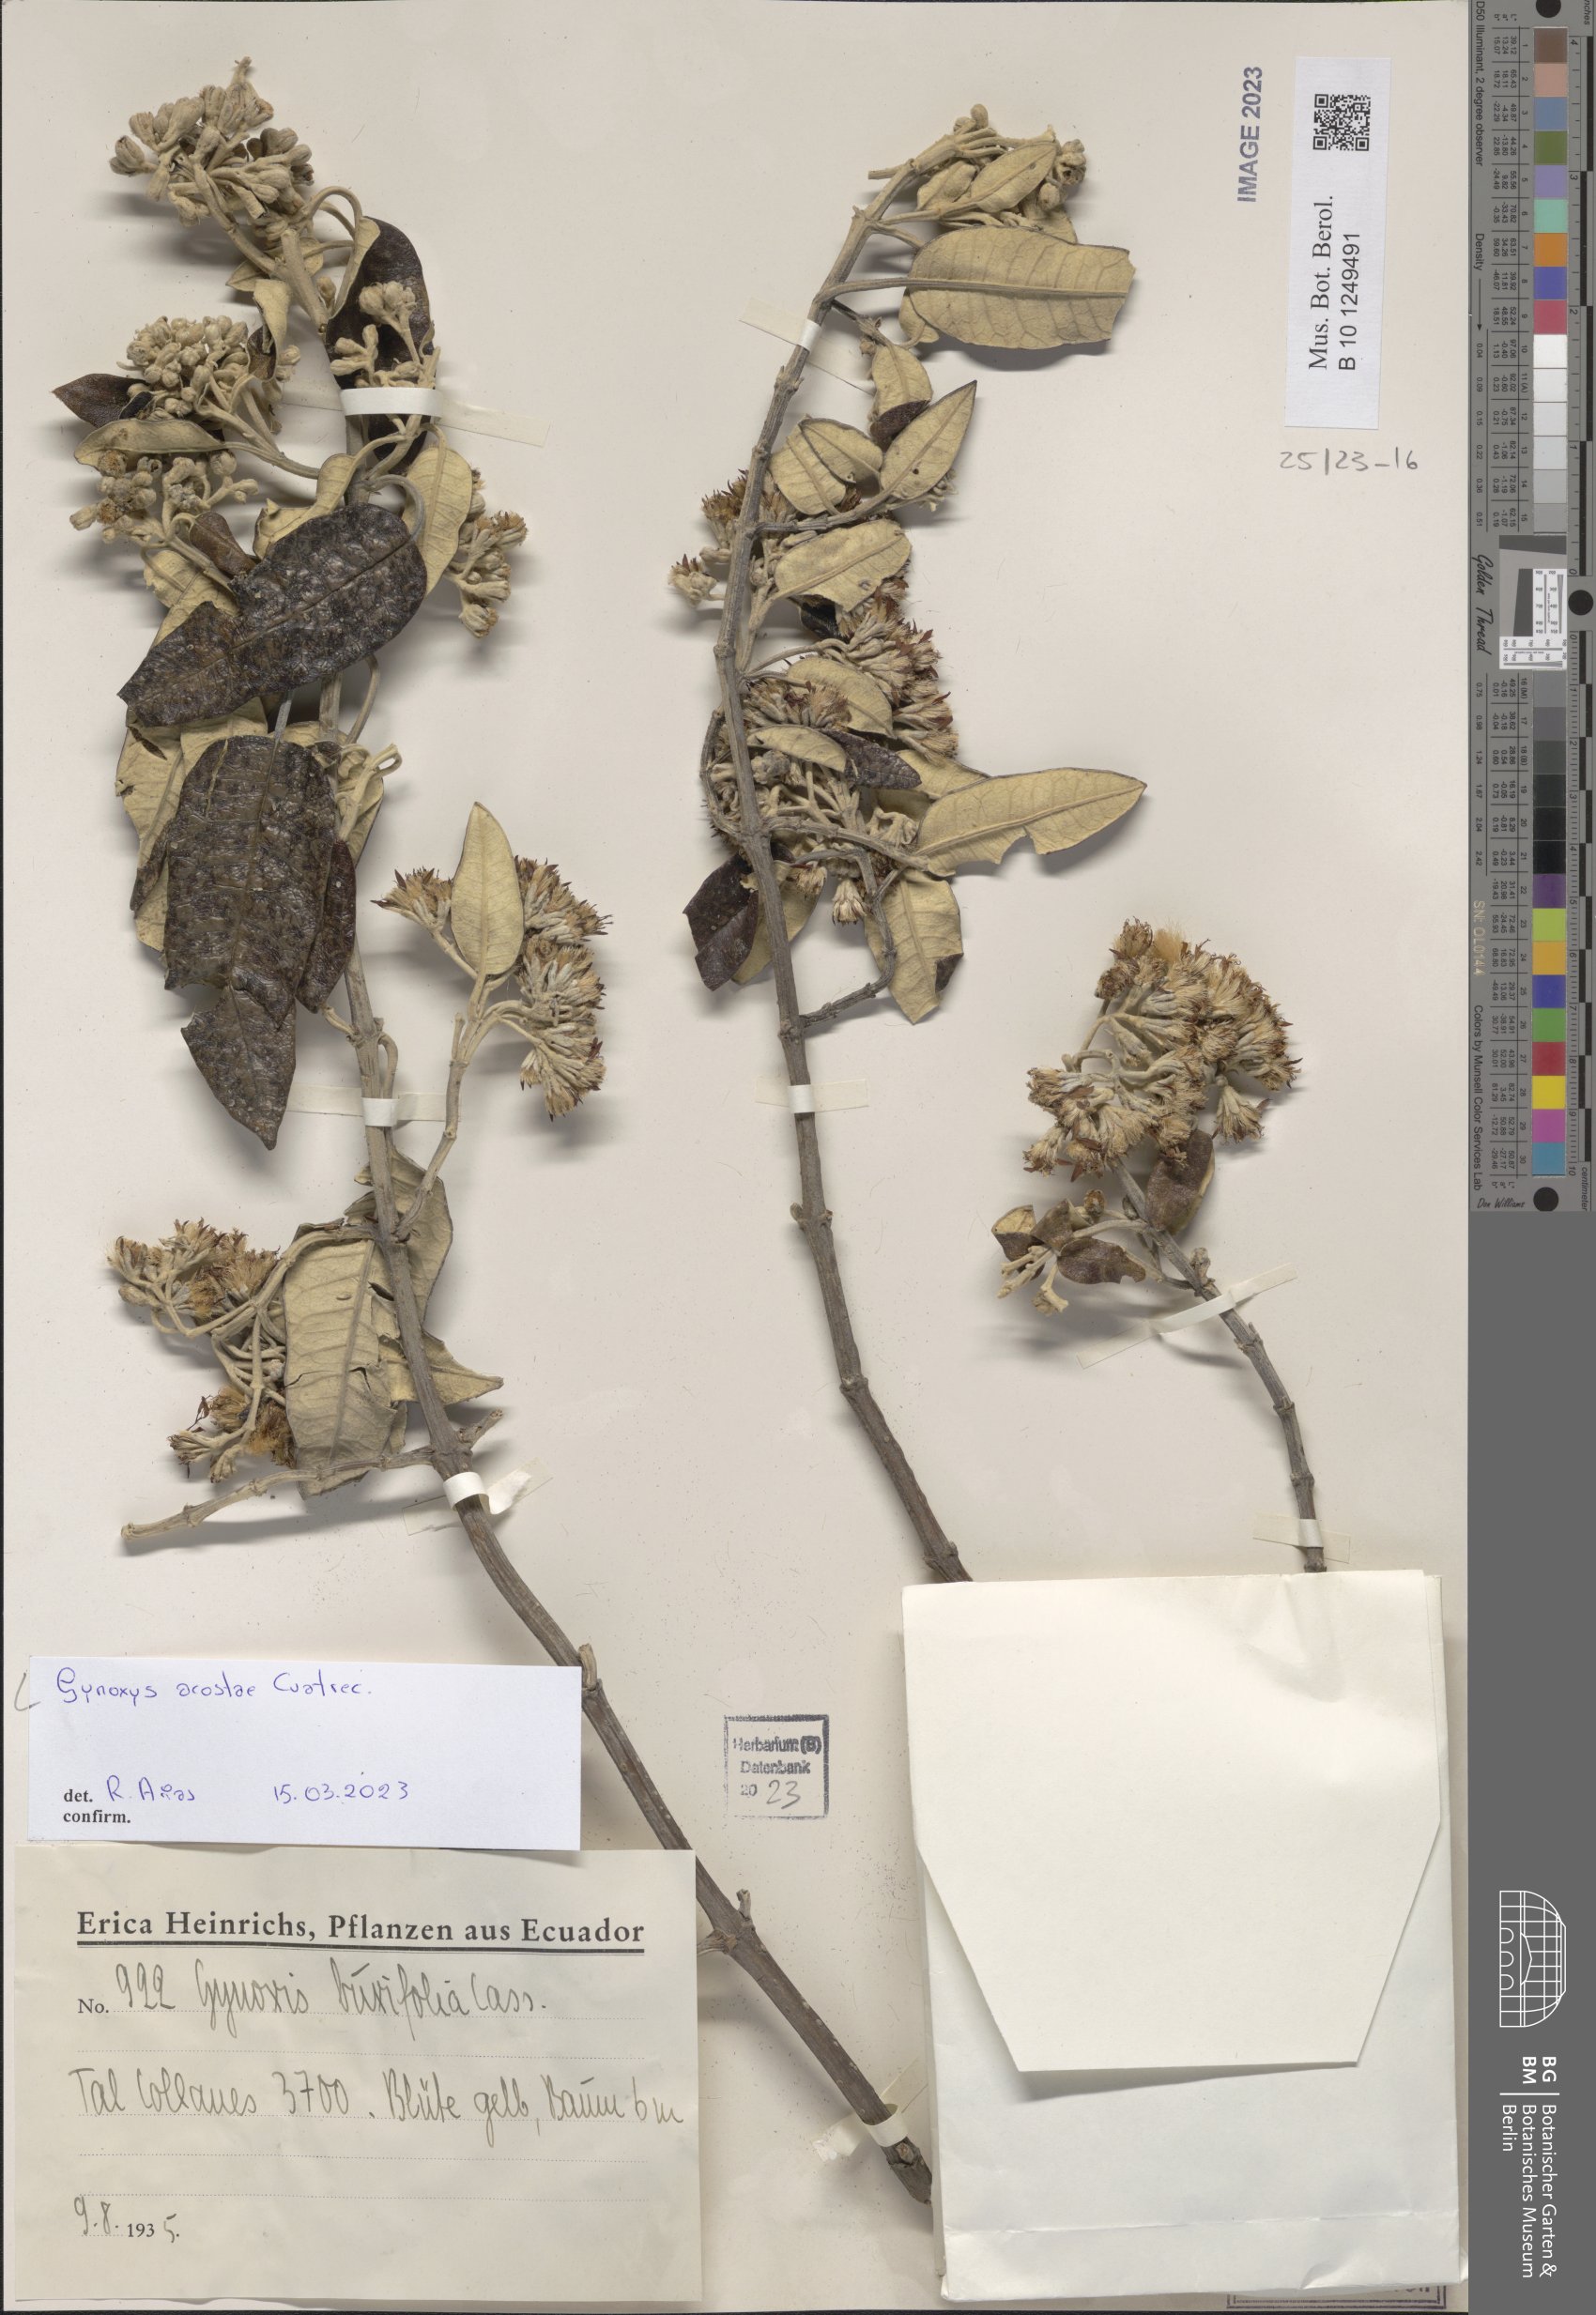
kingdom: Plantae
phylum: Tracheophyta
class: Magnoliopsida
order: Asterales
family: Asteraceae
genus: Gynoxys
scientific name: Gynoxys acostae
